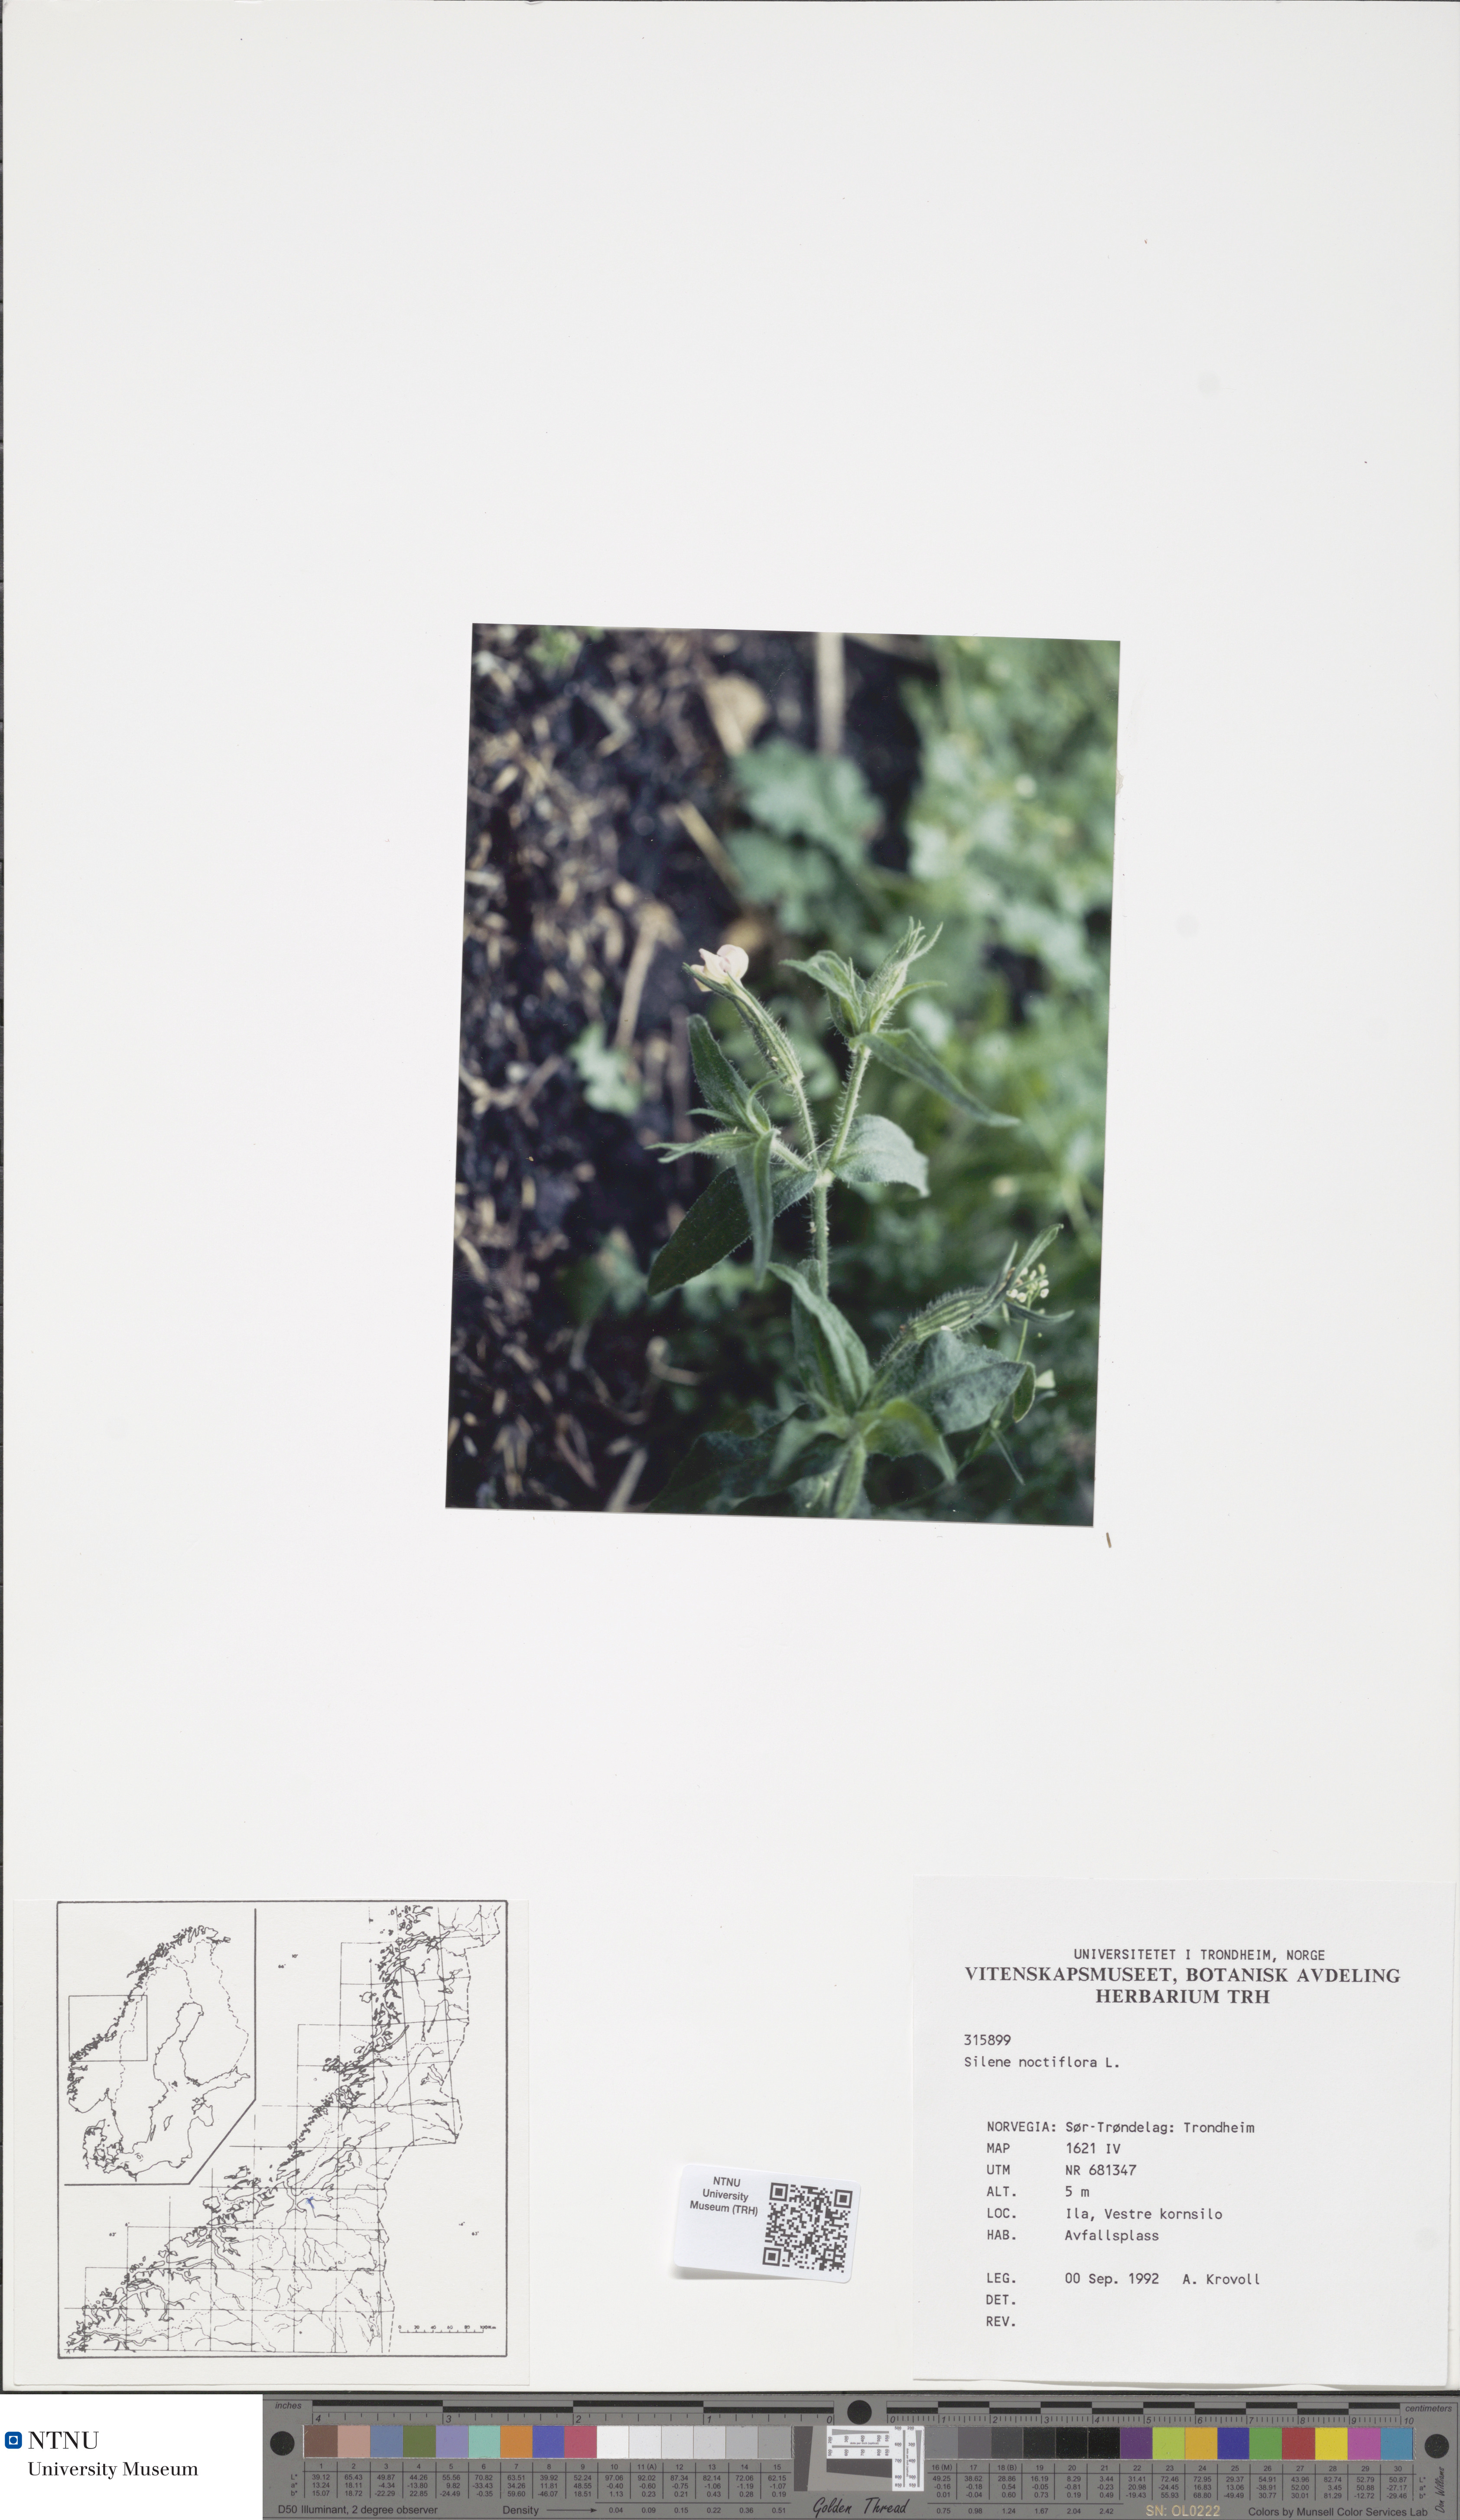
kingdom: Plantae
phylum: Tracheophyta
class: Magnoliopsida
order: Caryophyllales
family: Caryophyllaceae
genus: Silene
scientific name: Silene noctiflora
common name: Night-flowering catchfly
